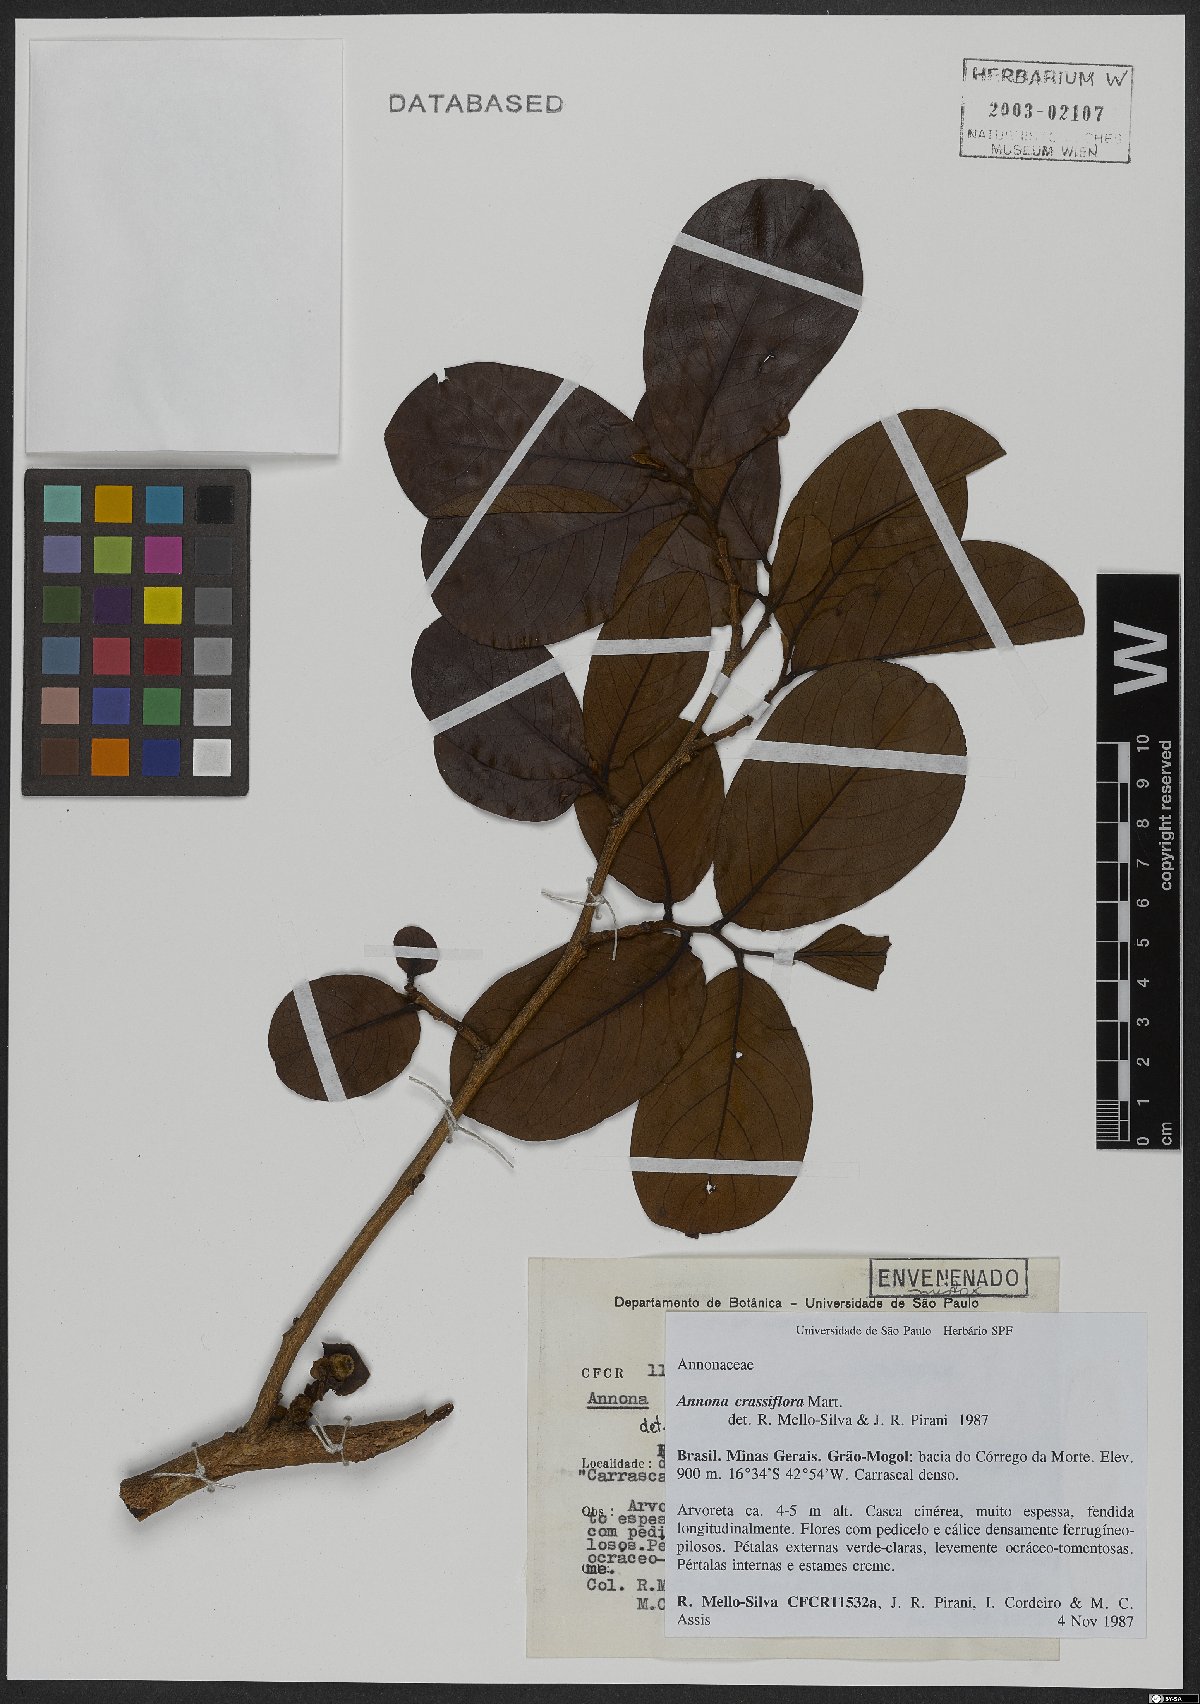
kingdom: Plantae
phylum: Tracheophyta
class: Magnoliopsida
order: Magnoliales
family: Annonaceae
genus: Annona
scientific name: Annona crassiflora
